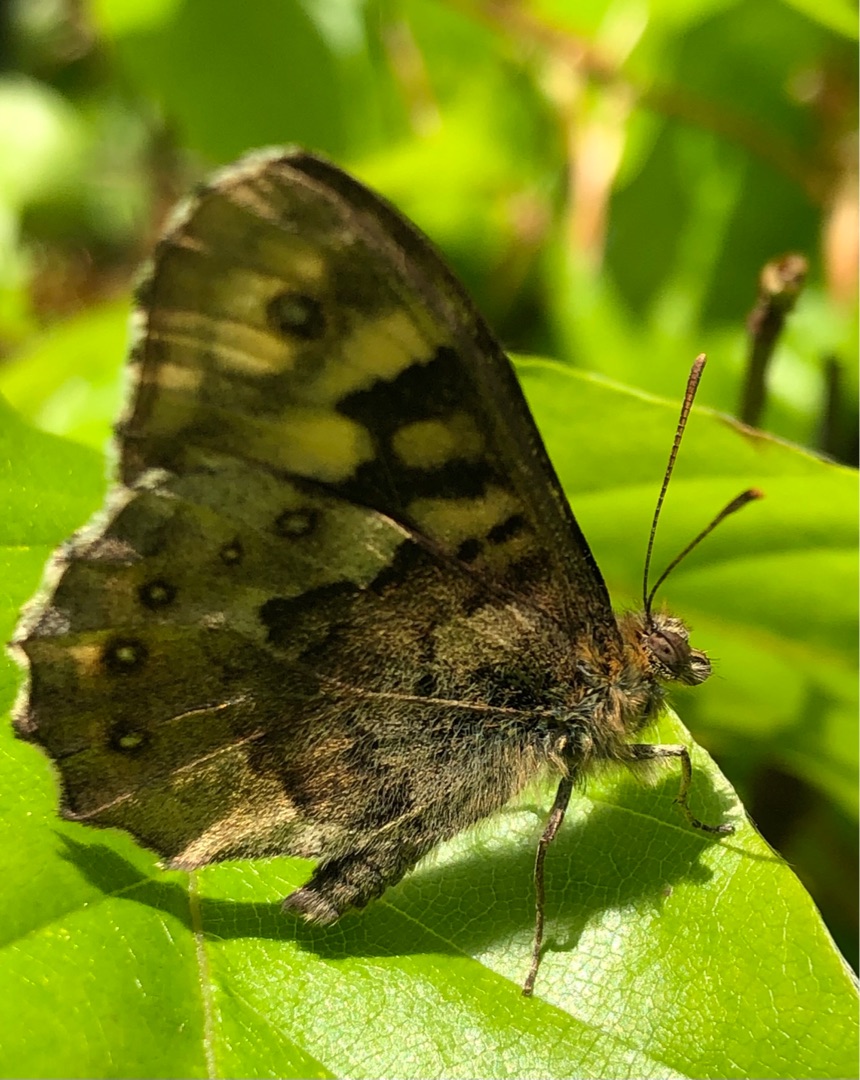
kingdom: Animalia
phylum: Arthropoda
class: Insecta
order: Lepidoptera
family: Nymphalidae
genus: Pararge
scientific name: Pararge aegeria
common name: Skovrandøje
